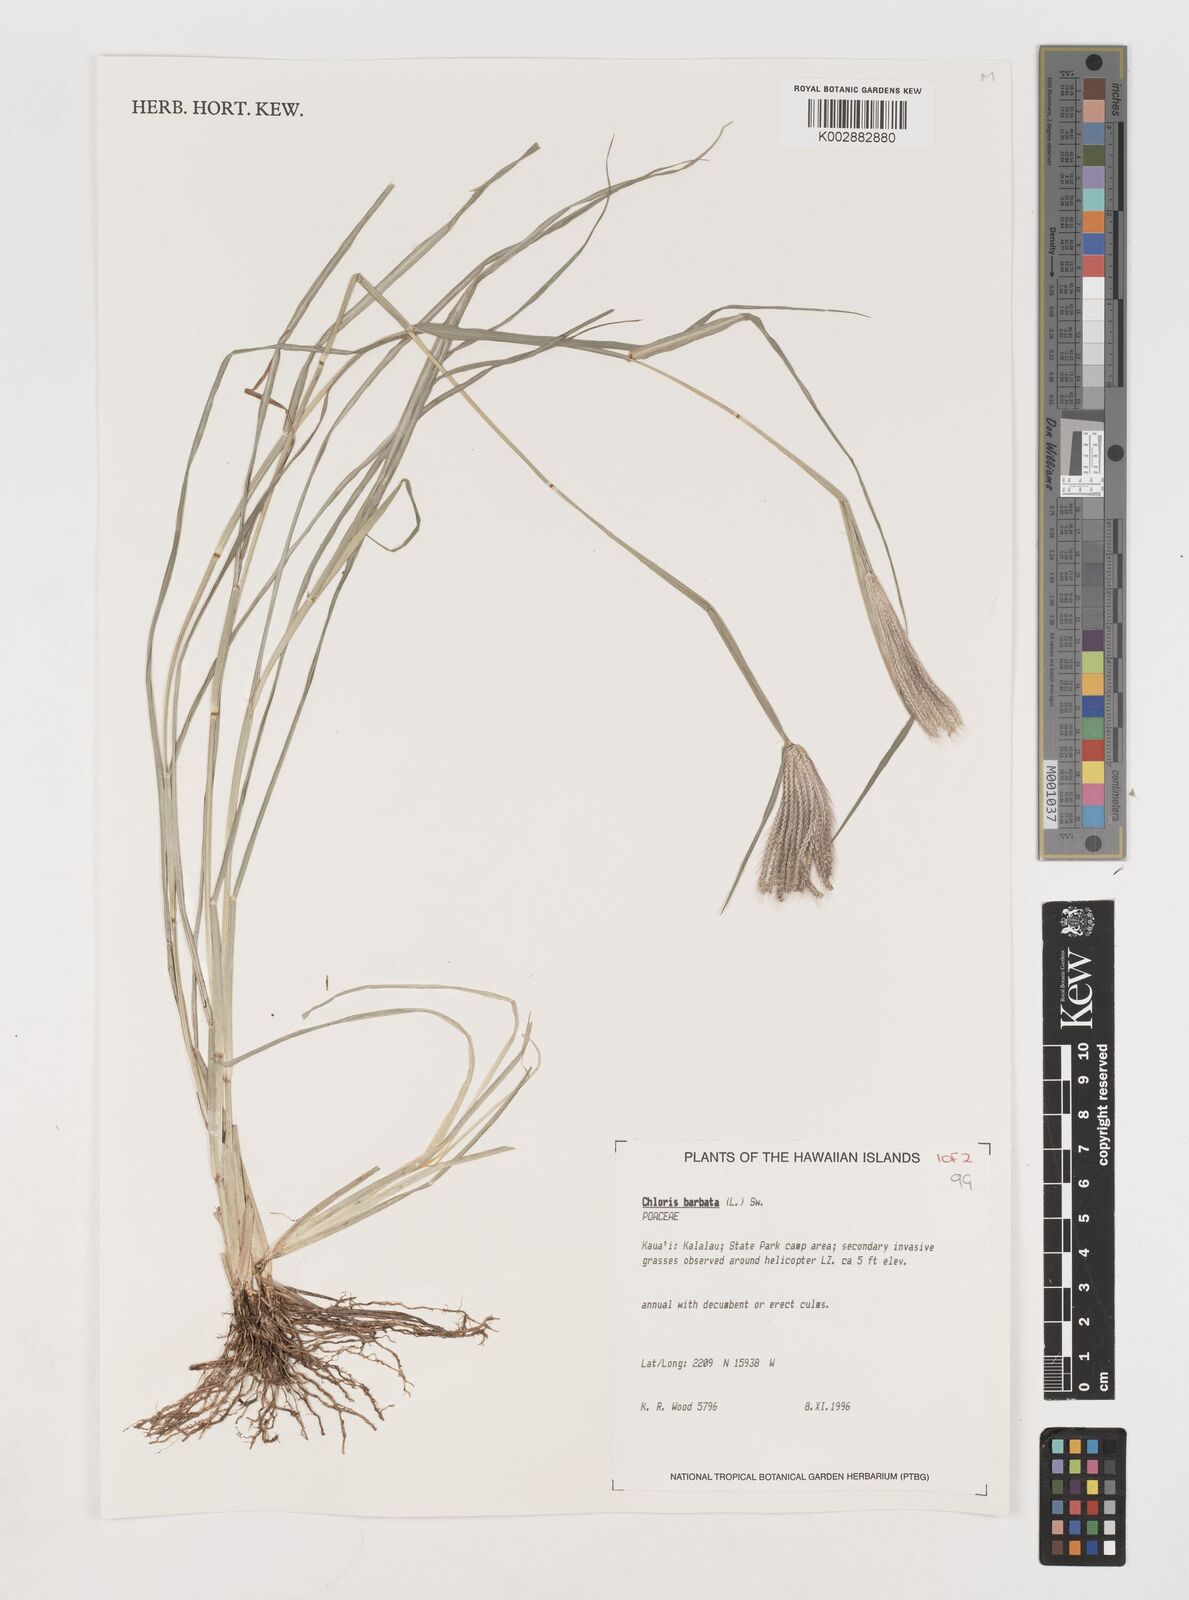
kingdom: Plantae
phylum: Tracheophyta
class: Liliopsida
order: Poales
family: Poaceae
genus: Chloris
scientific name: Chloris barbata
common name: Swollen fingergrass
